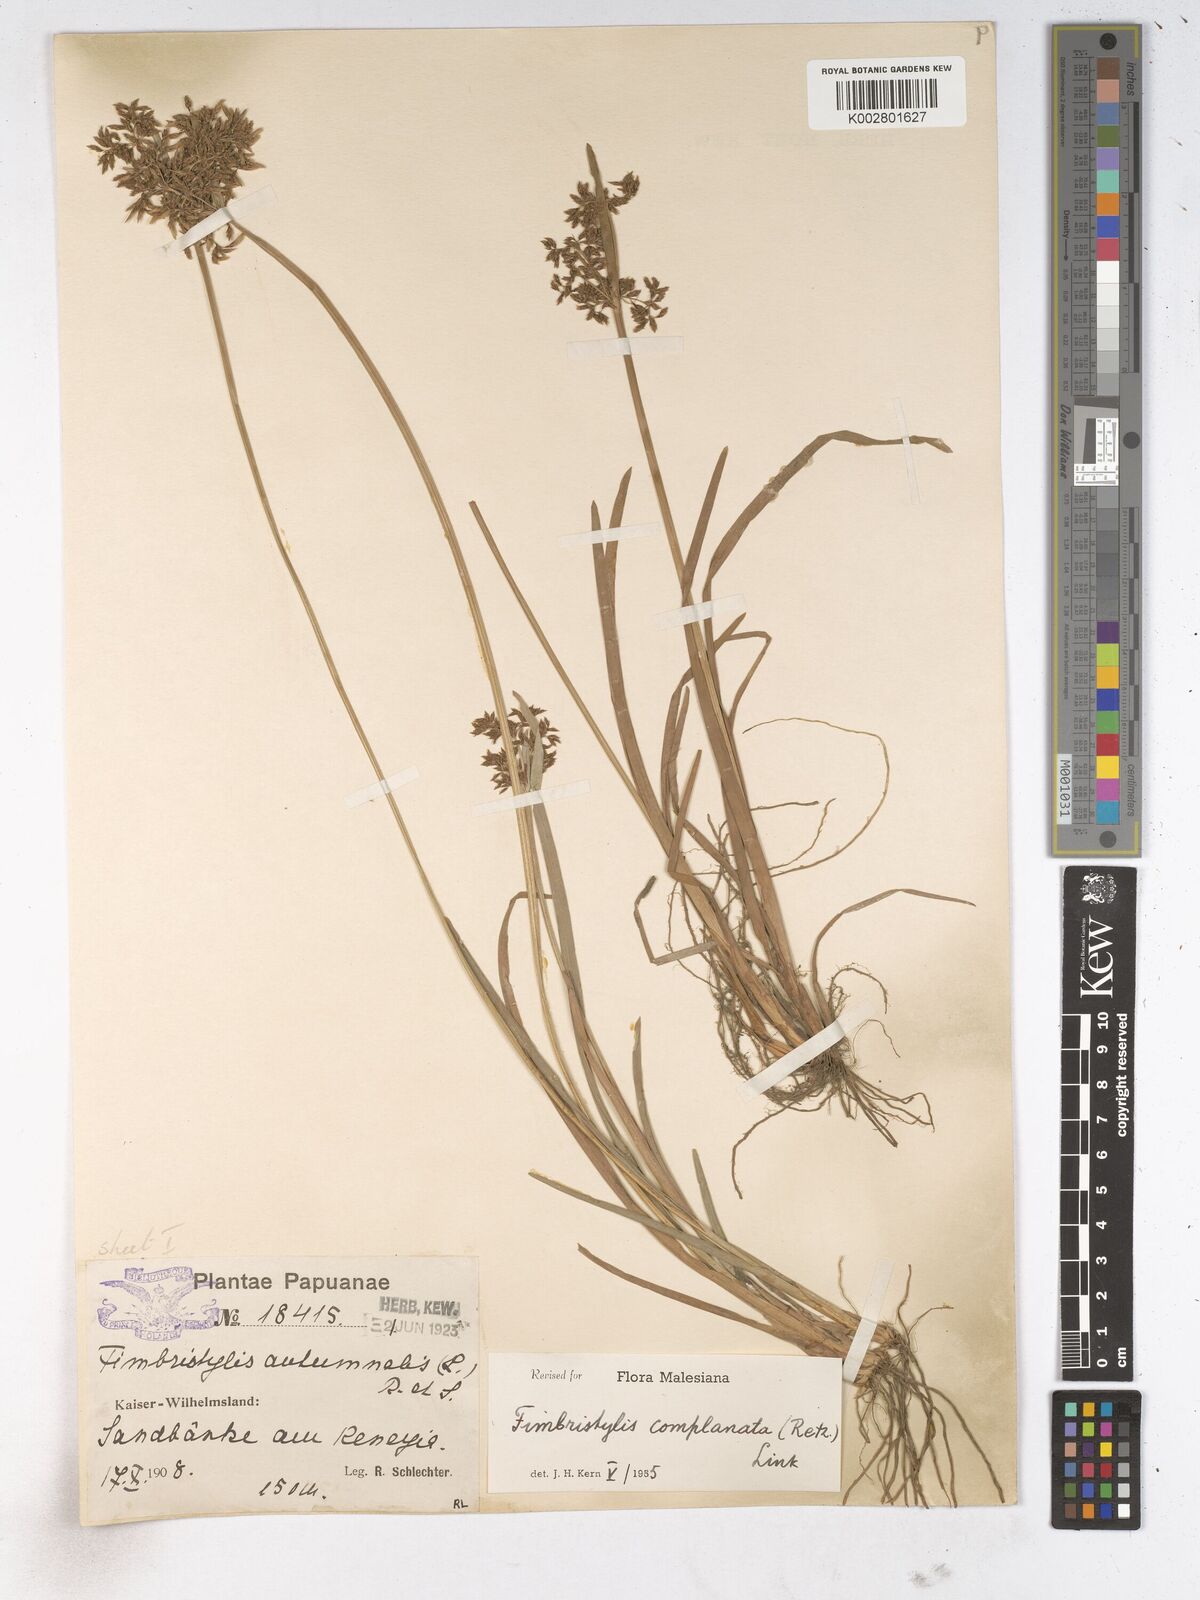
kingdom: Plantae
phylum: Tracheophyta
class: Liliopsida
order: Poales
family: Cyperaceae
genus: Fimbristylis
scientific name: Fimbristylis complanata
